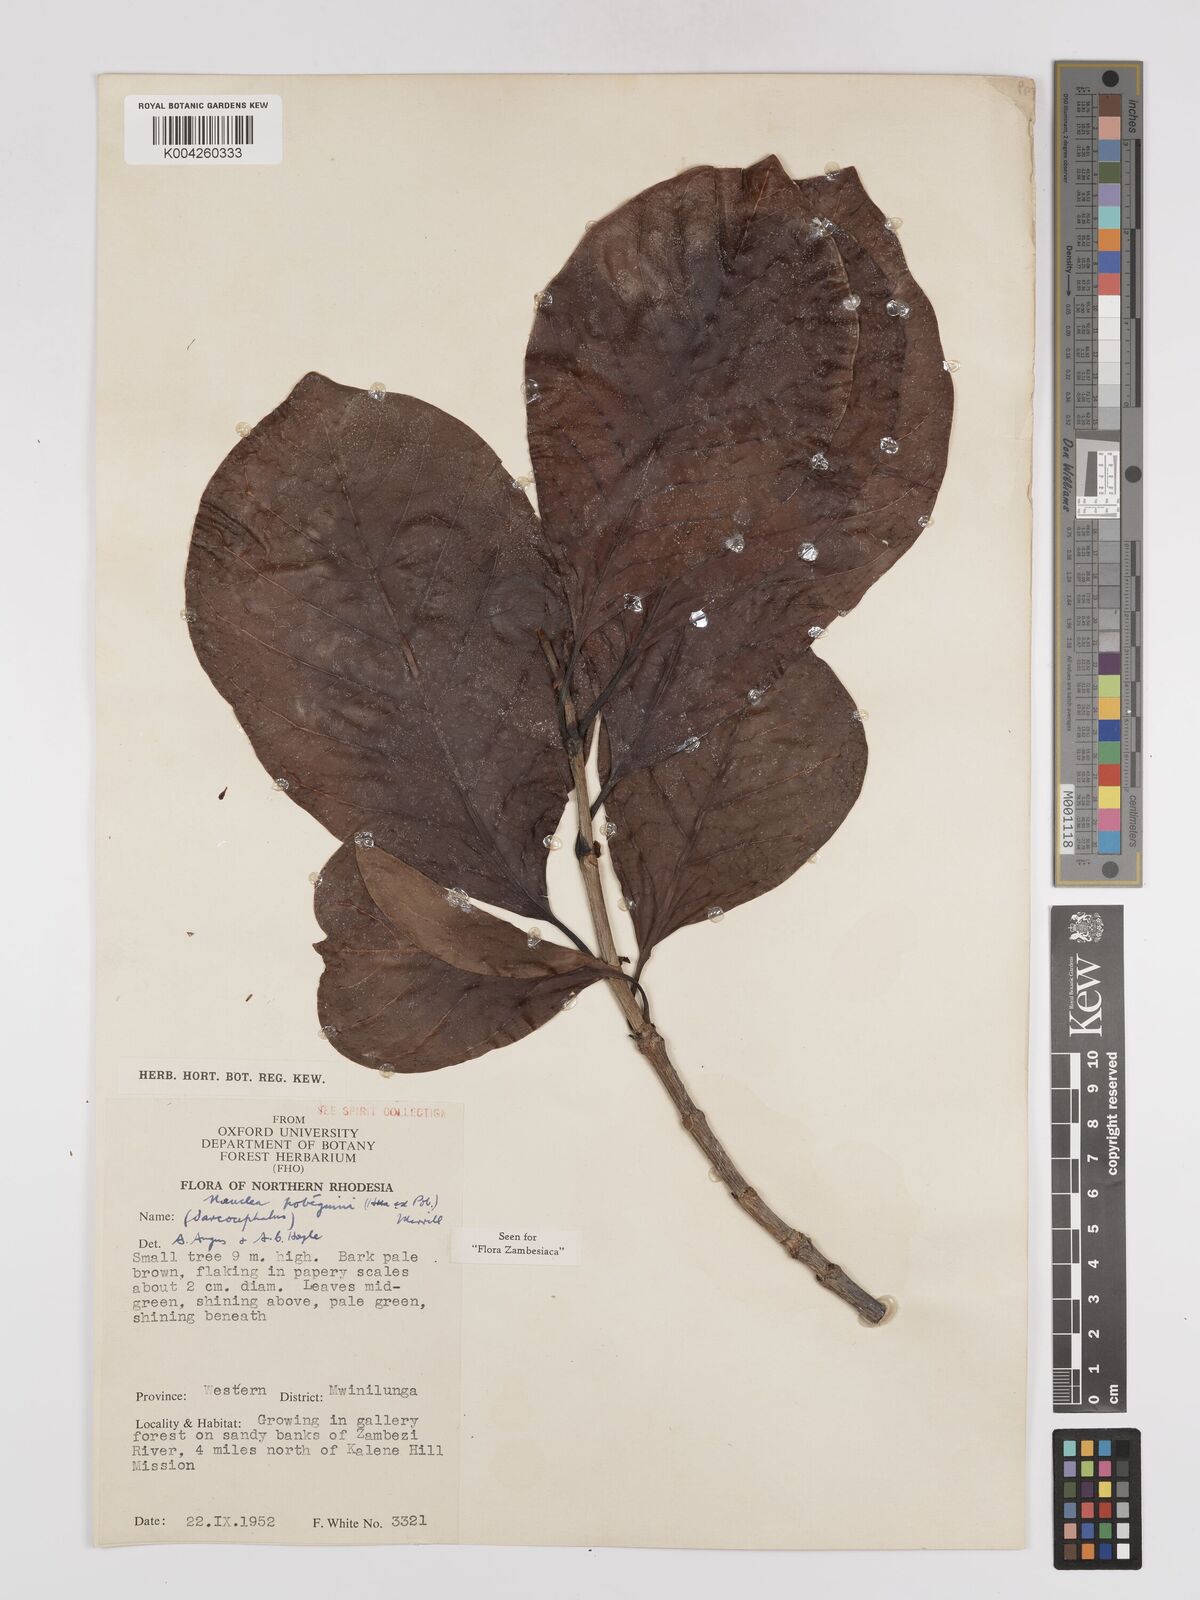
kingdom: Plantae
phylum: Tracheophyta
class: Magnoliopsida
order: Gentianales
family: Rubiaceae
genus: Nauclea
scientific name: Nauclea pobeguinii
